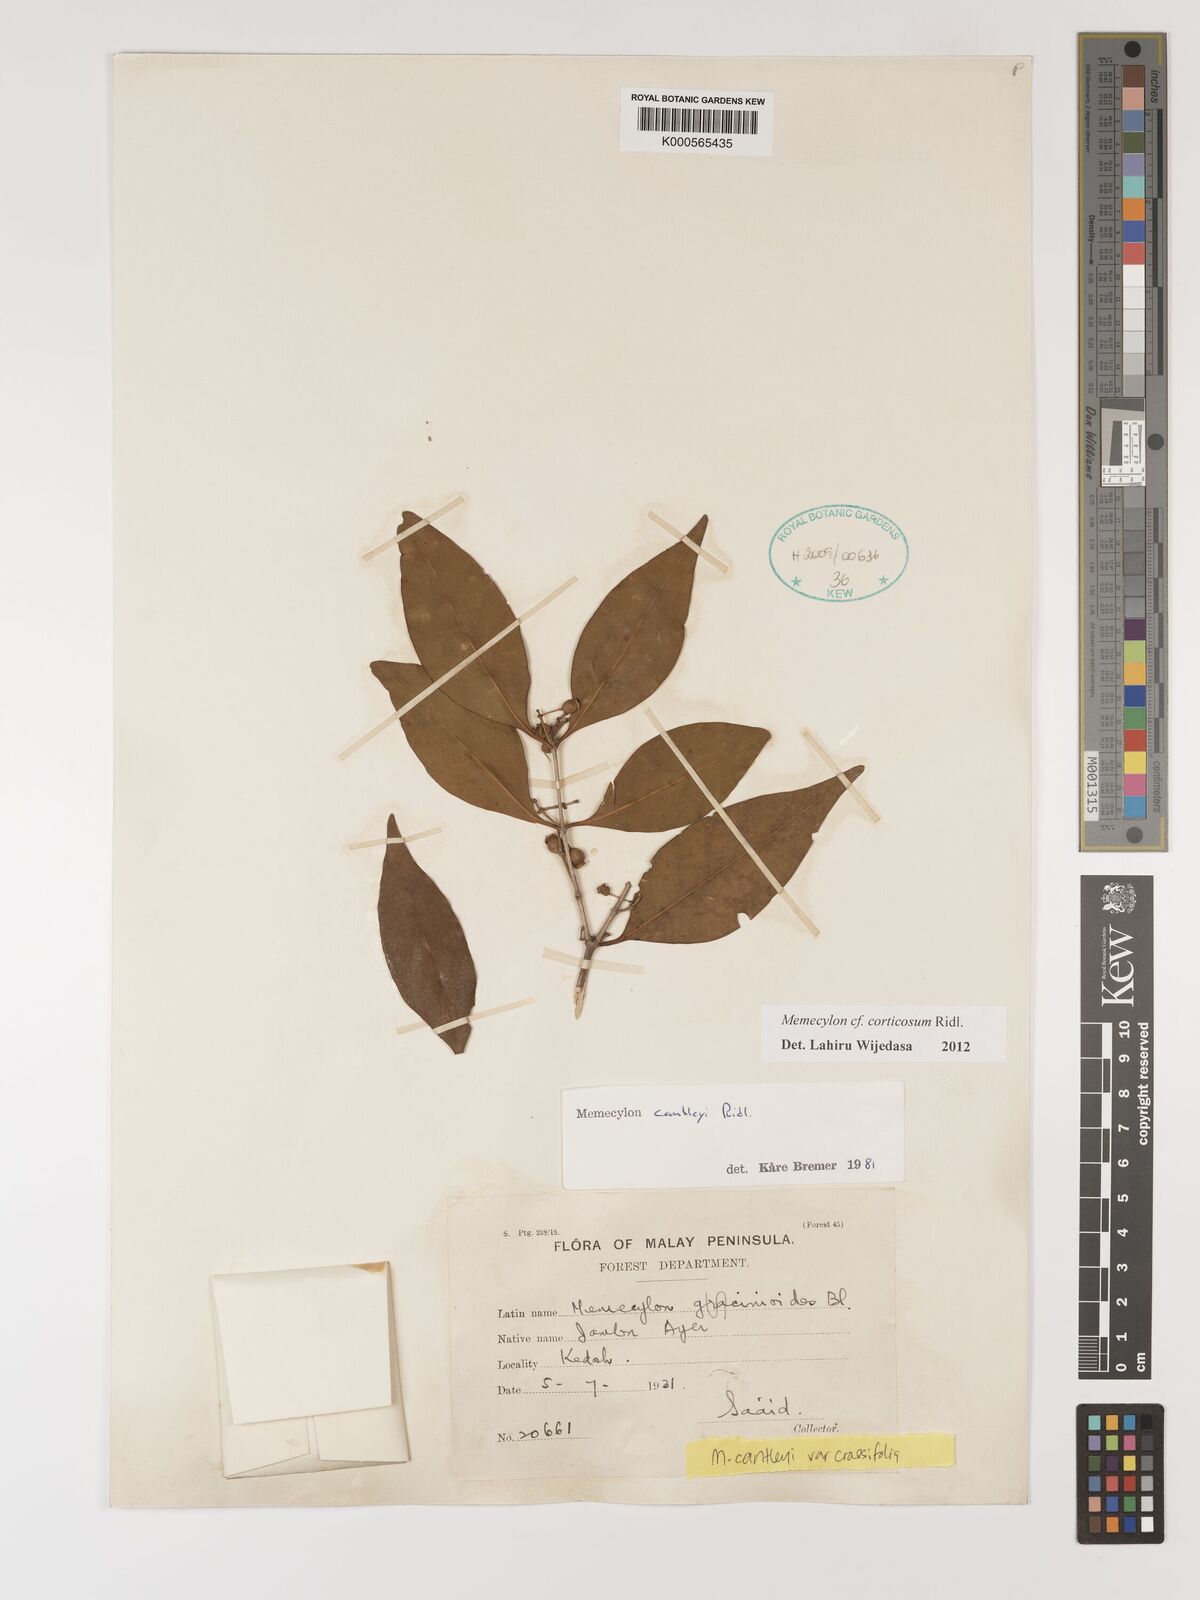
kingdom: Plantae
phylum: Tracheophyta
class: Magnoliopsida
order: Myrtales
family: Melastomataceae
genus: Memecylon
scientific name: Memecylon corticosum
